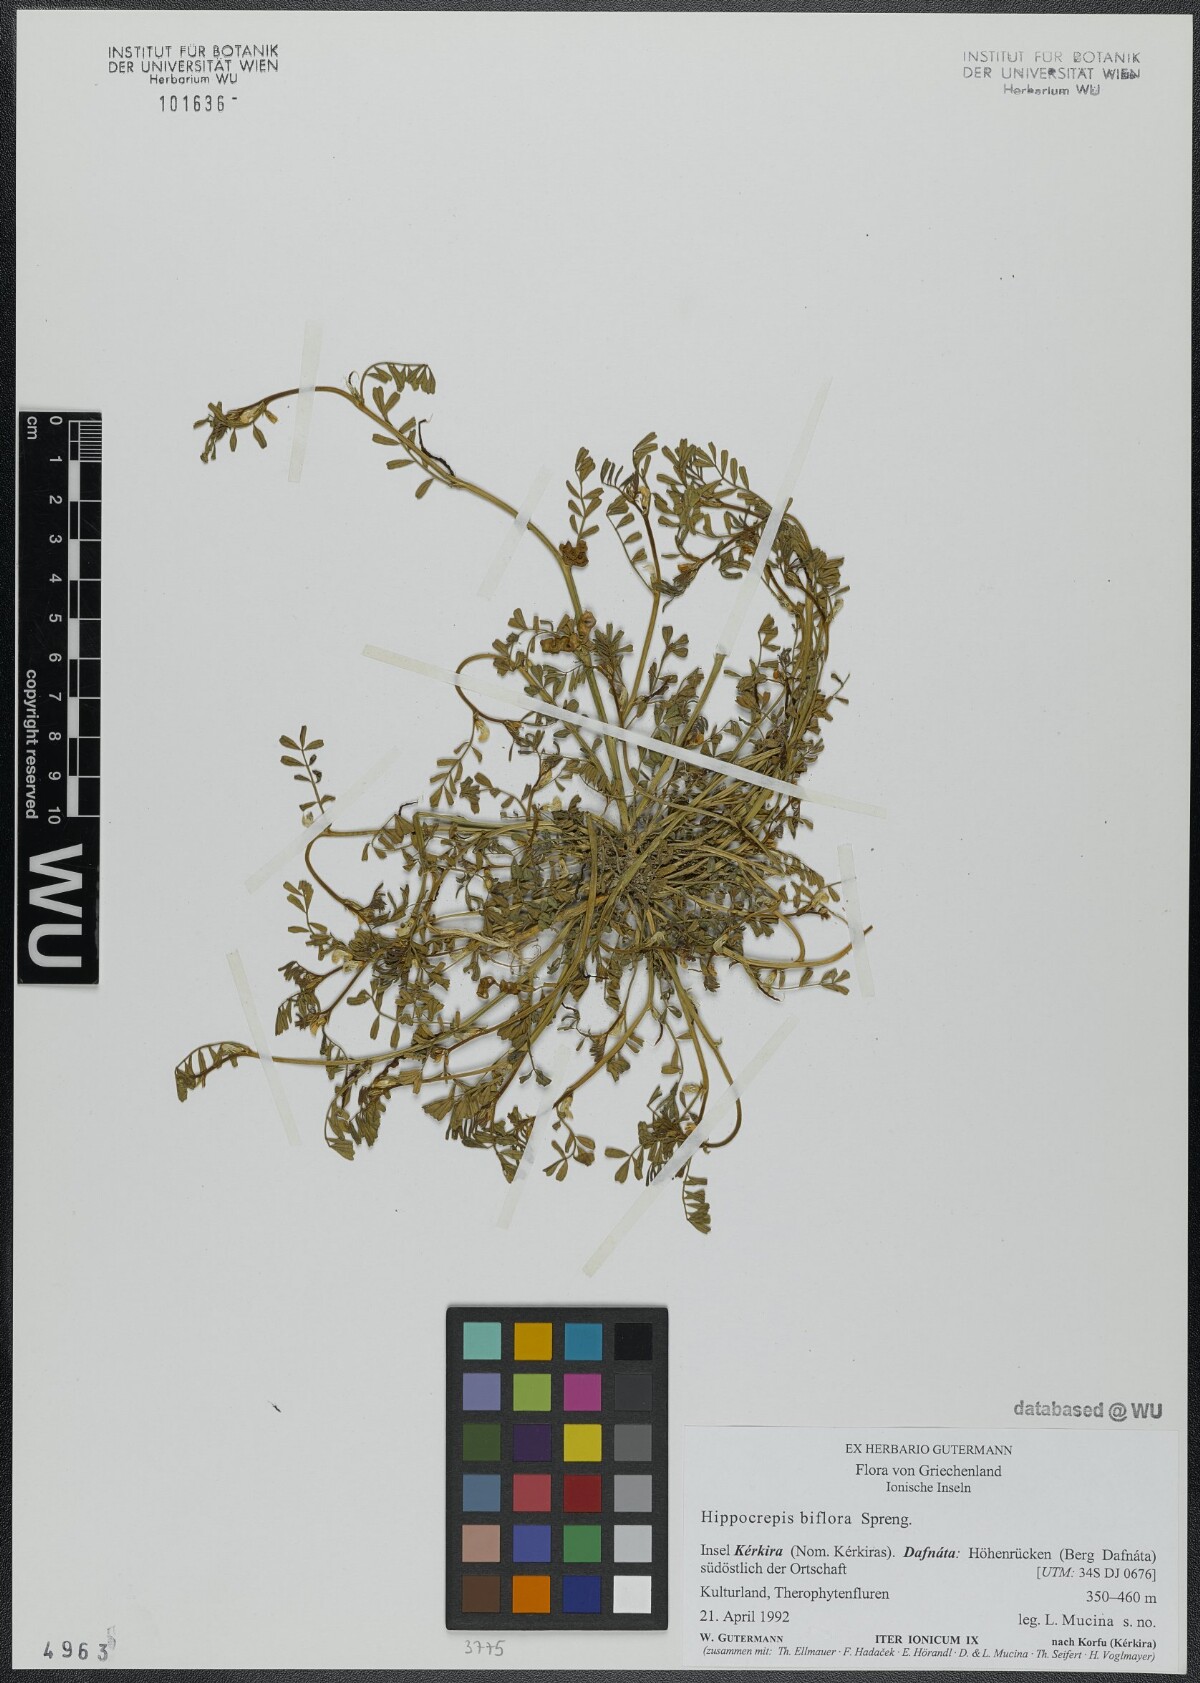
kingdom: Plantae
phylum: Tracheophyta
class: Magnoliopsida
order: Fabales
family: Fabaceae
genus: Hippocrepis
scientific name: Hippocrepis biflora
